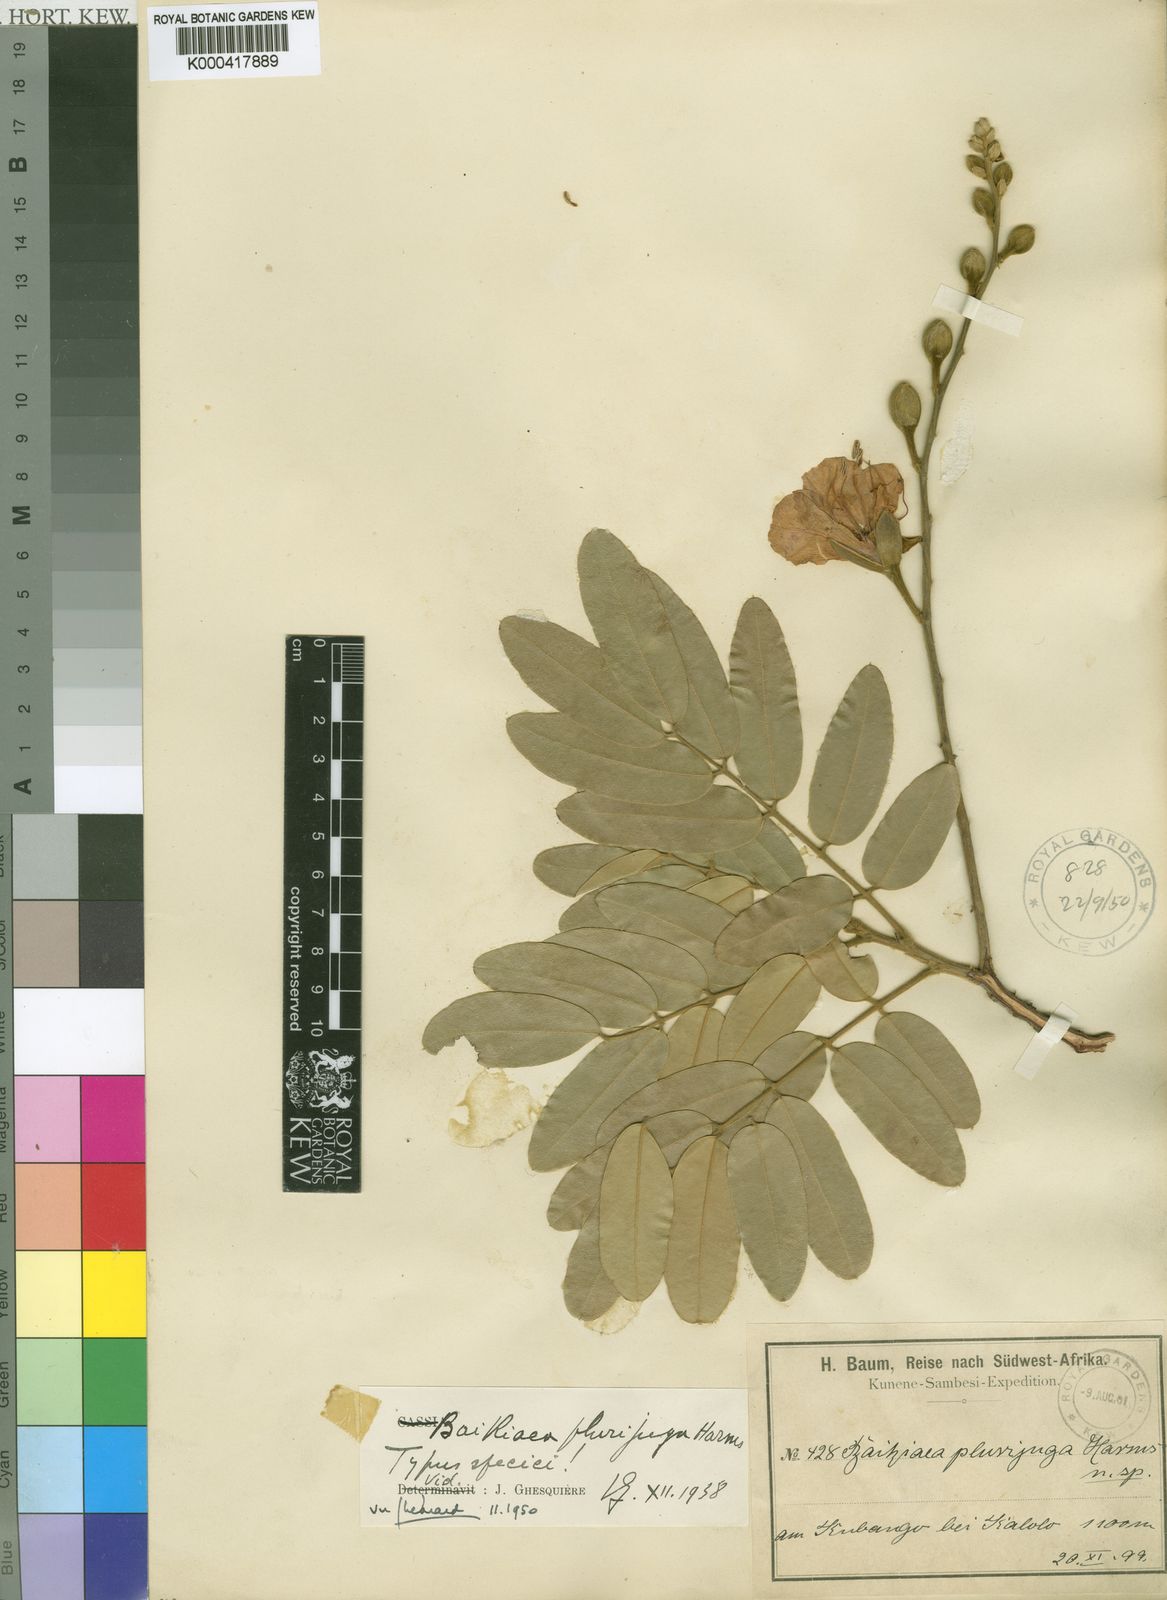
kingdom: Plantae
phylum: Tracheophyta
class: Magnoliopsida
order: Fabales
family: Fabaceae
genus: Baikiaea
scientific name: Baikiaea plurijuga
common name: Rhodesian-teak
